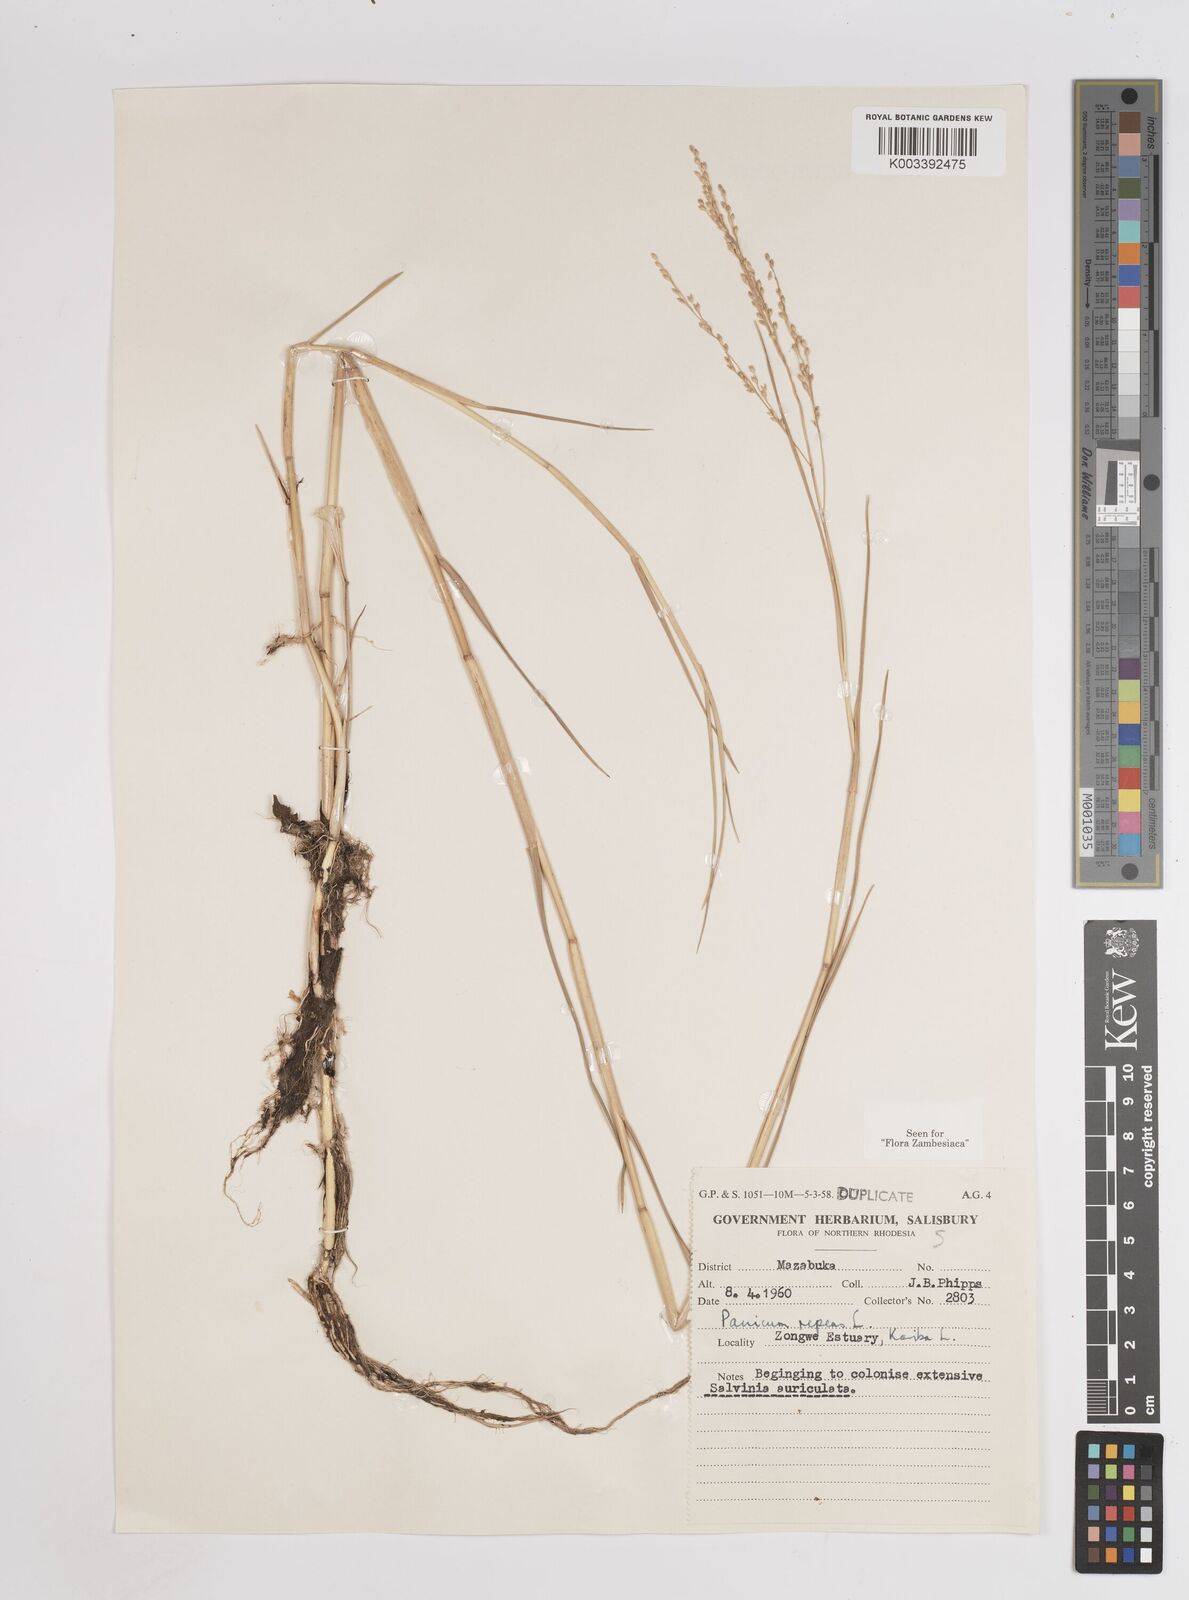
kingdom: Plantae
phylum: Tracheophyta
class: Liliopsida
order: Poales
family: Poaceae
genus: Panicum
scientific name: Panicum repens
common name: Torpedo grass
